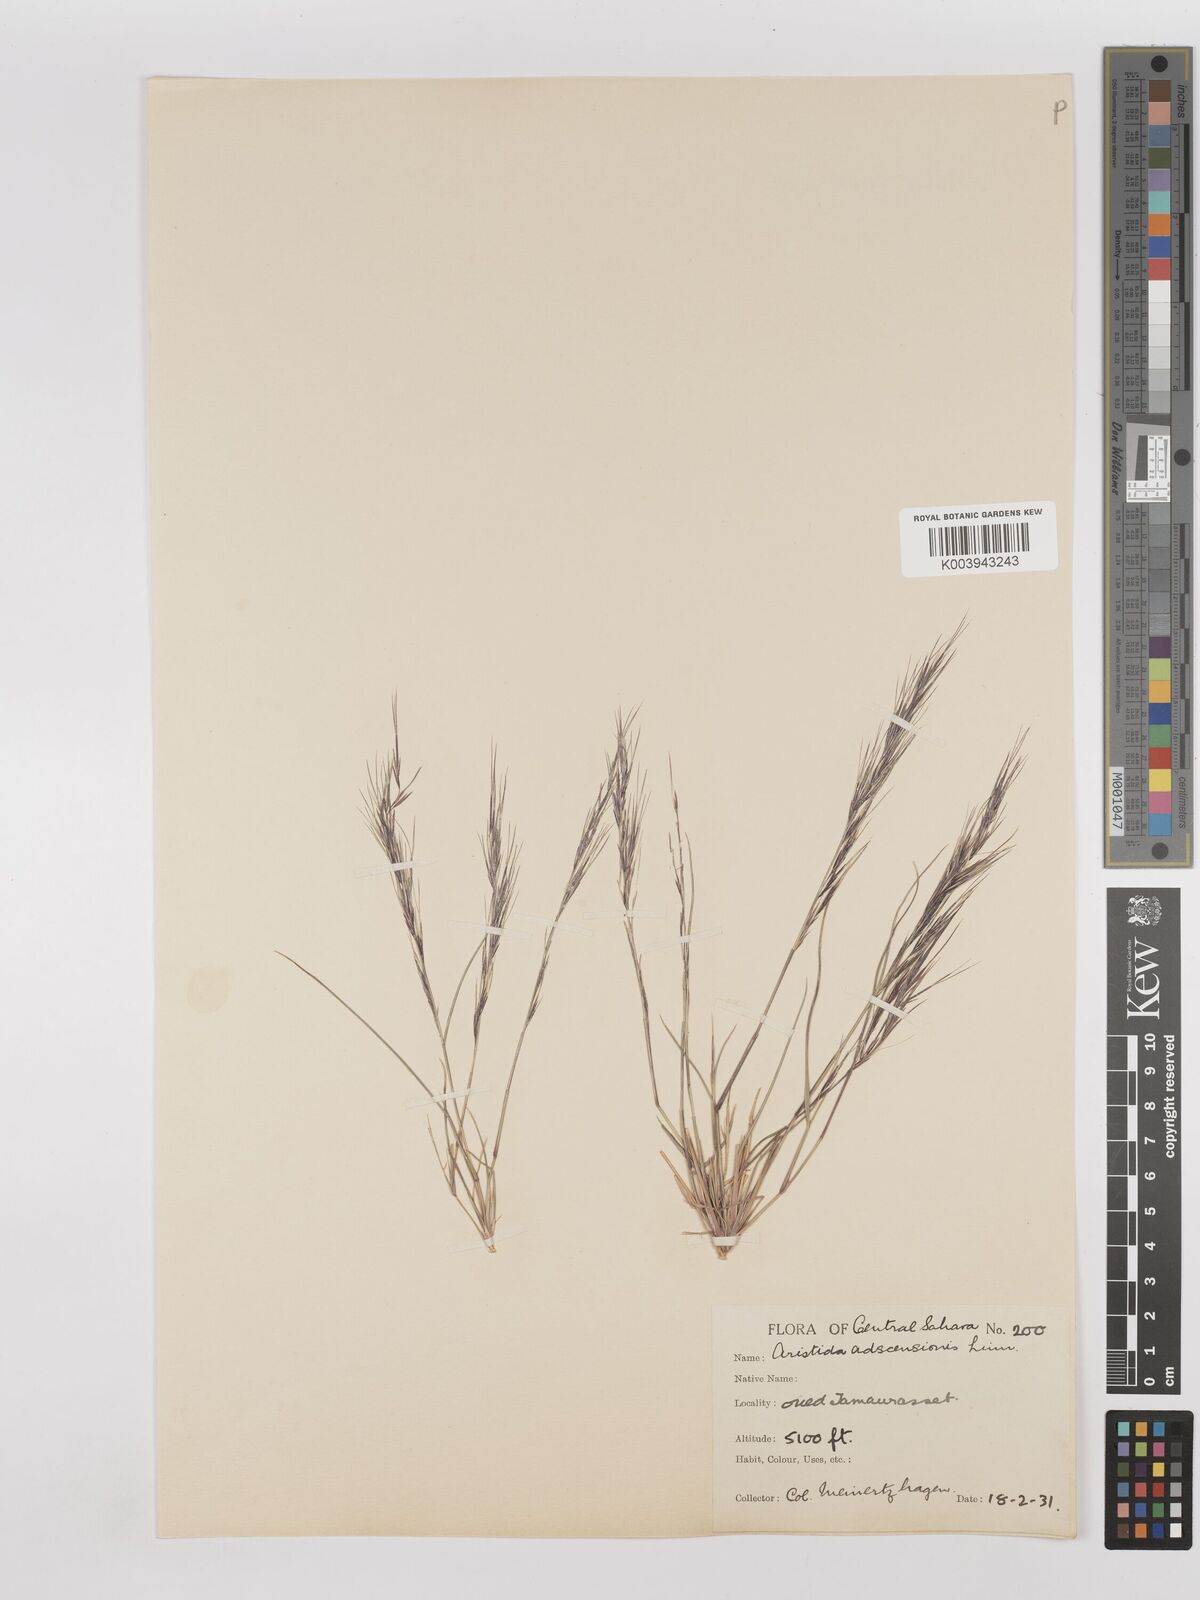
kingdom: Plantae
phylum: Tracheophyta
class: Liliopsida
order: Poales
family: Poaceae
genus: Aristida
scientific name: Aristida adscensionis
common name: Sixweeks threeawn
